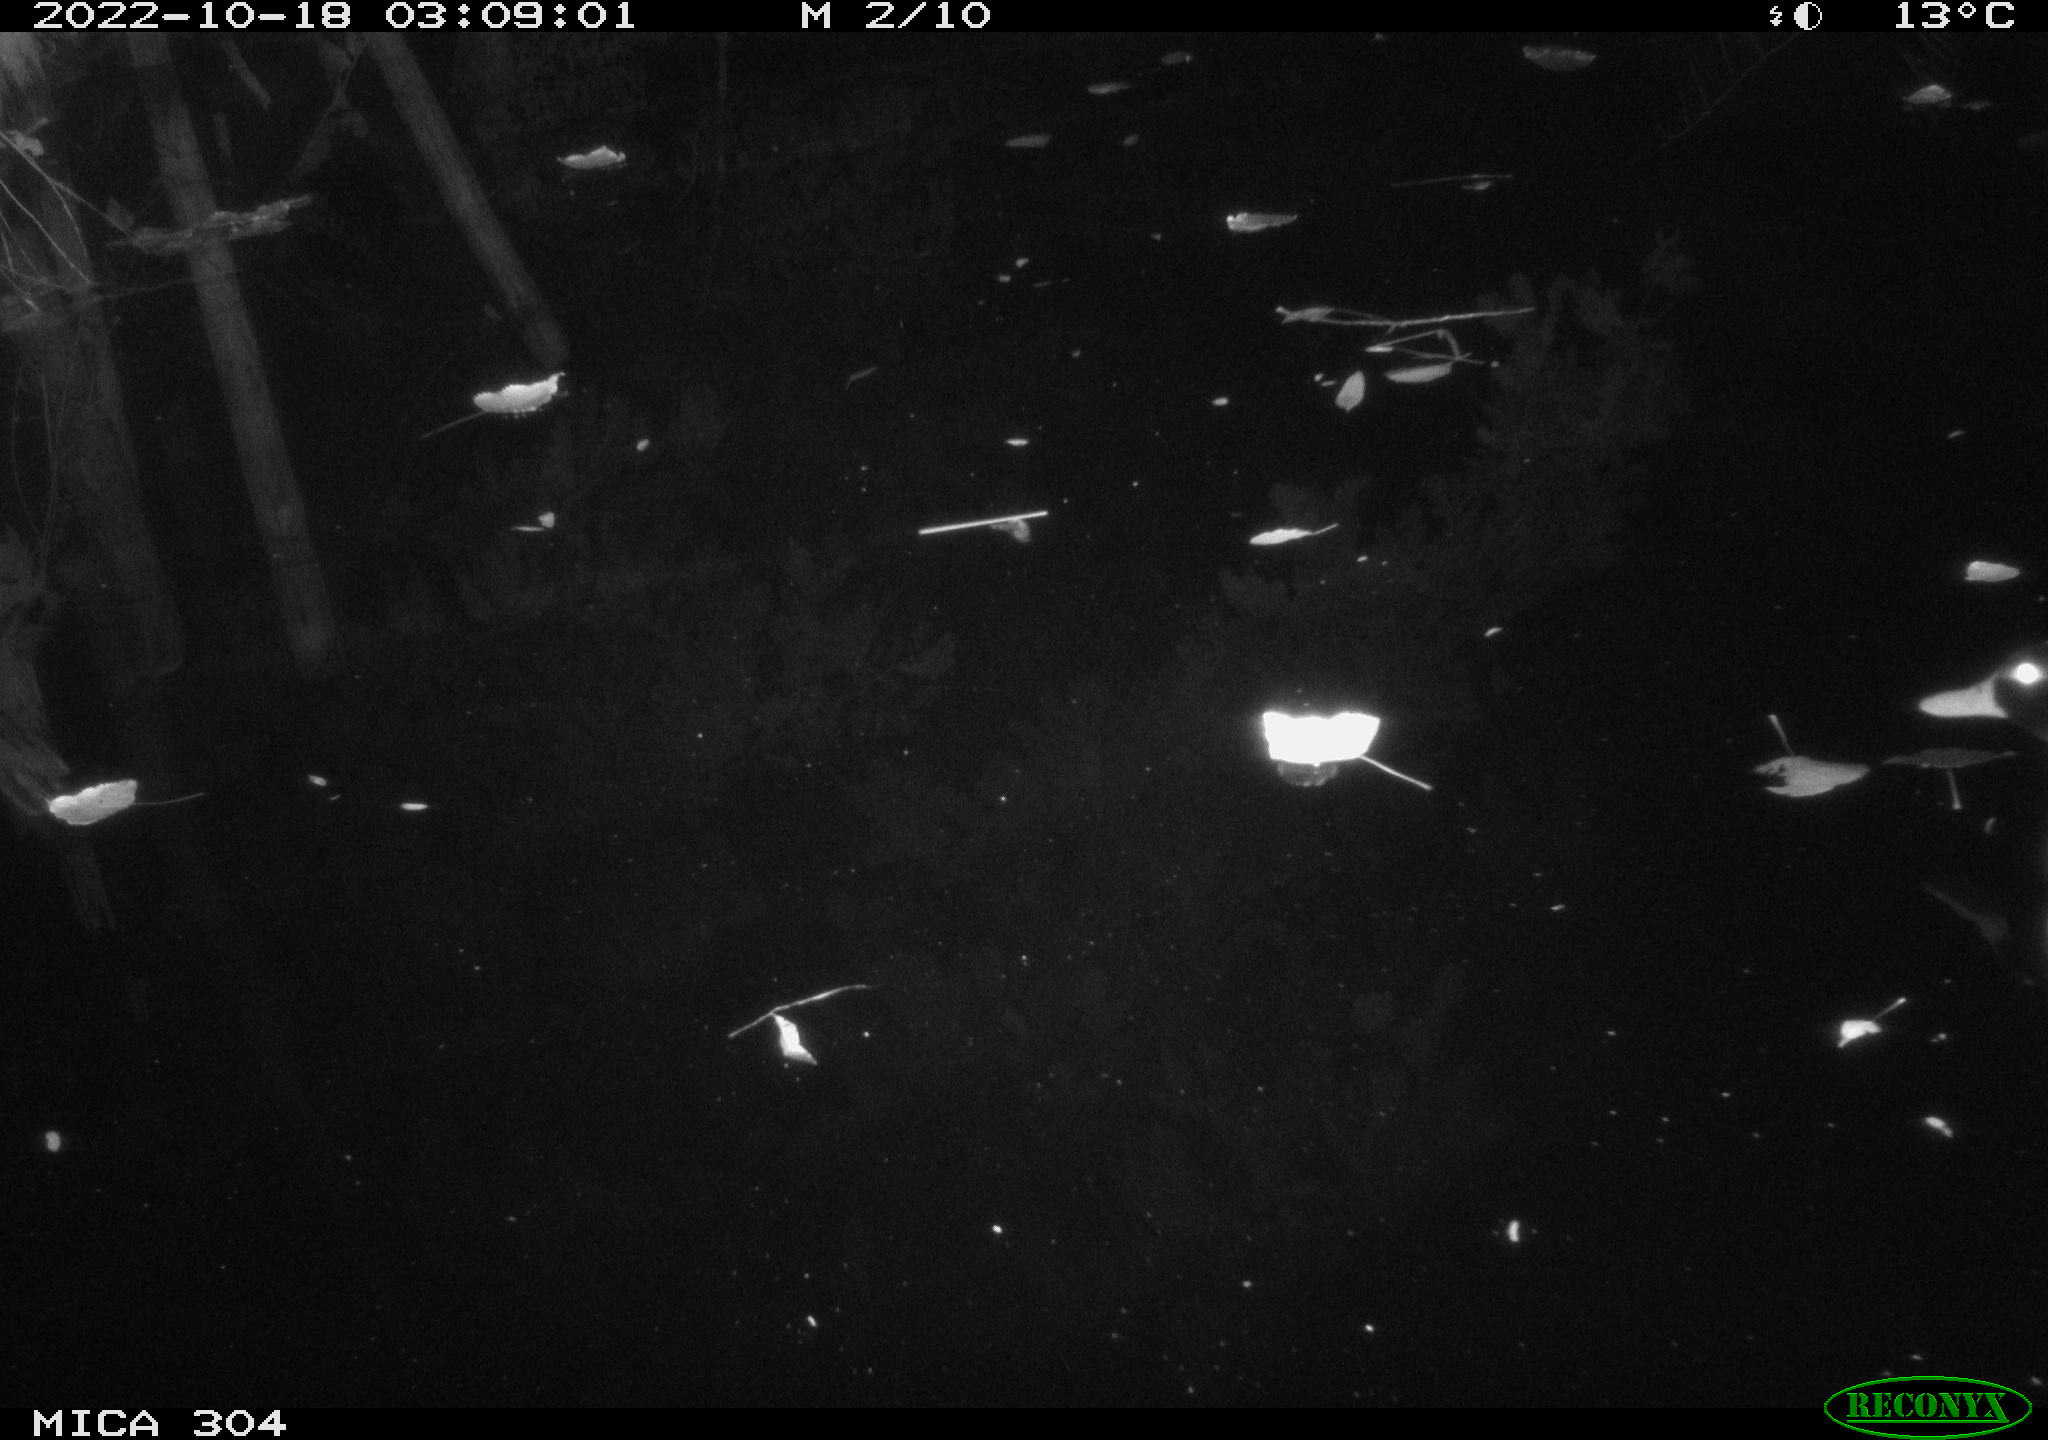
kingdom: Animalia
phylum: Chordata
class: Aves
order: Anseriformes
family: Anatidae
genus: Anas
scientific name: Anas
